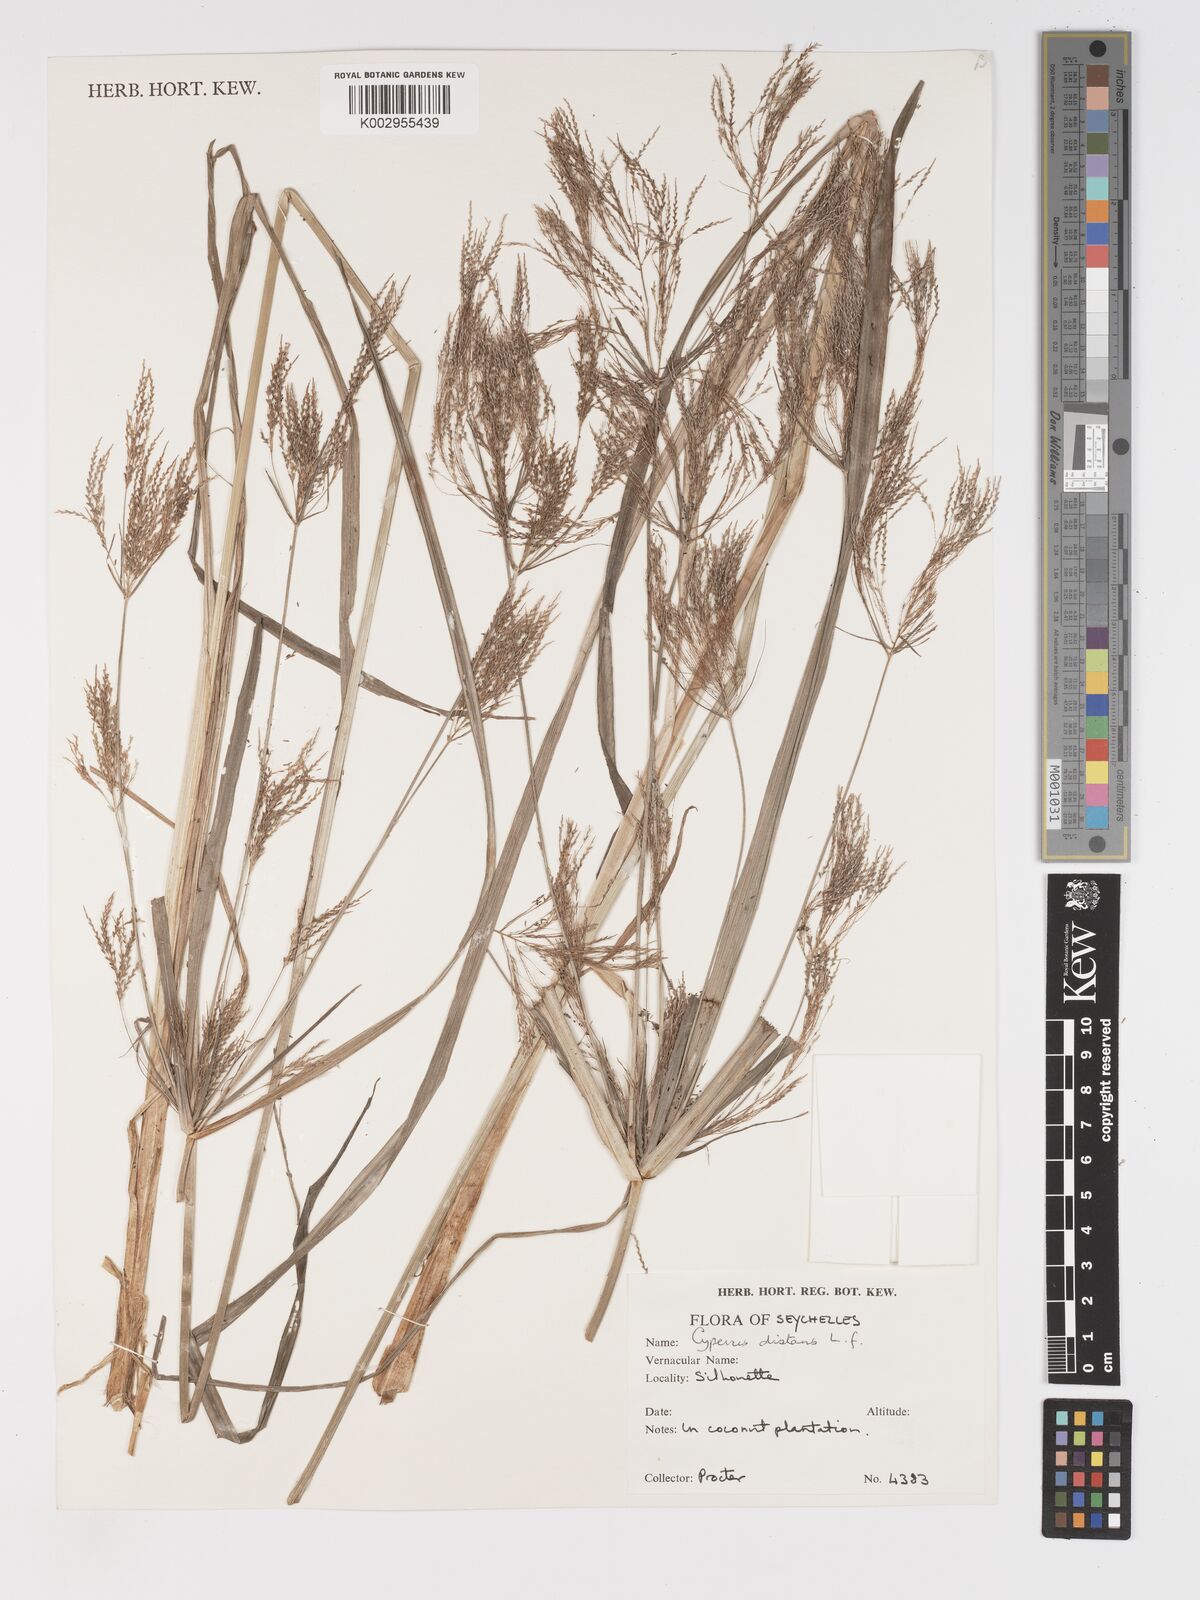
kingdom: Plantae
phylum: Tracheophyta
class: Liliopsida
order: Poales
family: Cyperaceae
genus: Cyperus
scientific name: Cyperus distans
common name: Slender cyperus
